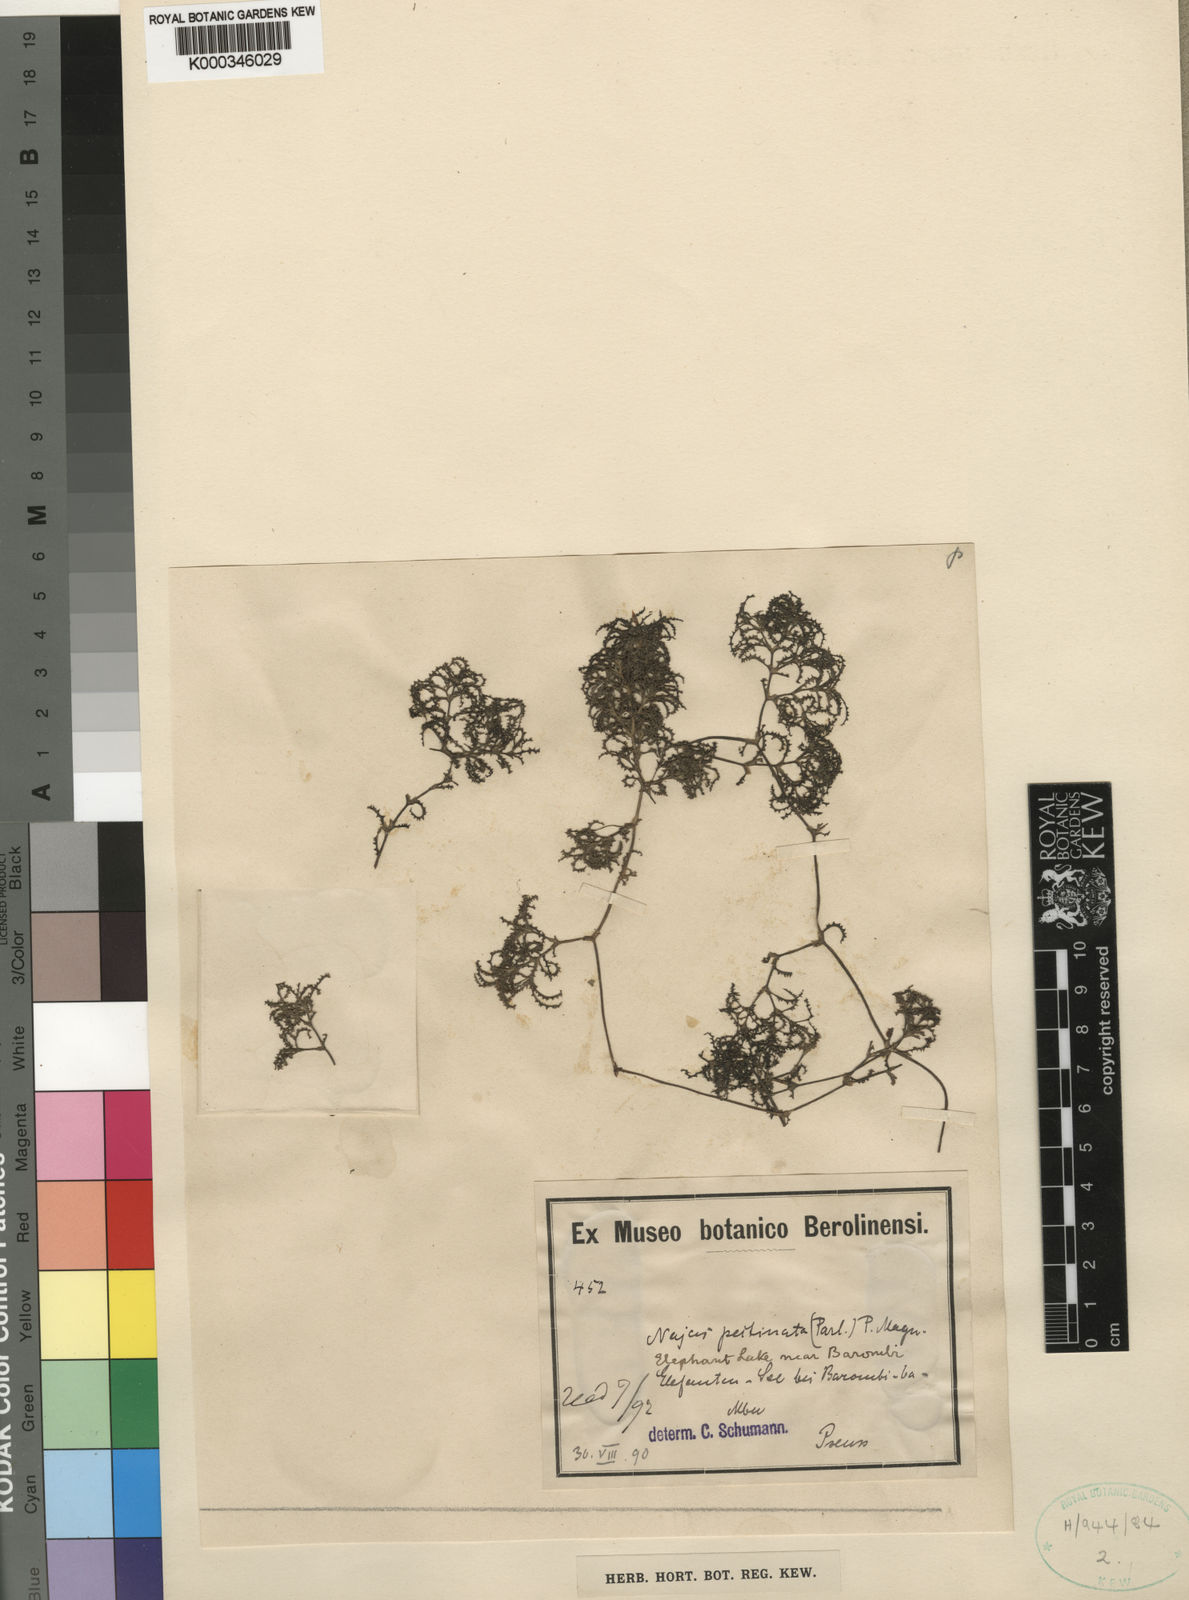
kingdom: Plantae
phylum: Tracheophyta
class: Liliopsida
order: Alismatales
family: Hydrocharitaceae
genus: Najas
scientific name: Najas
